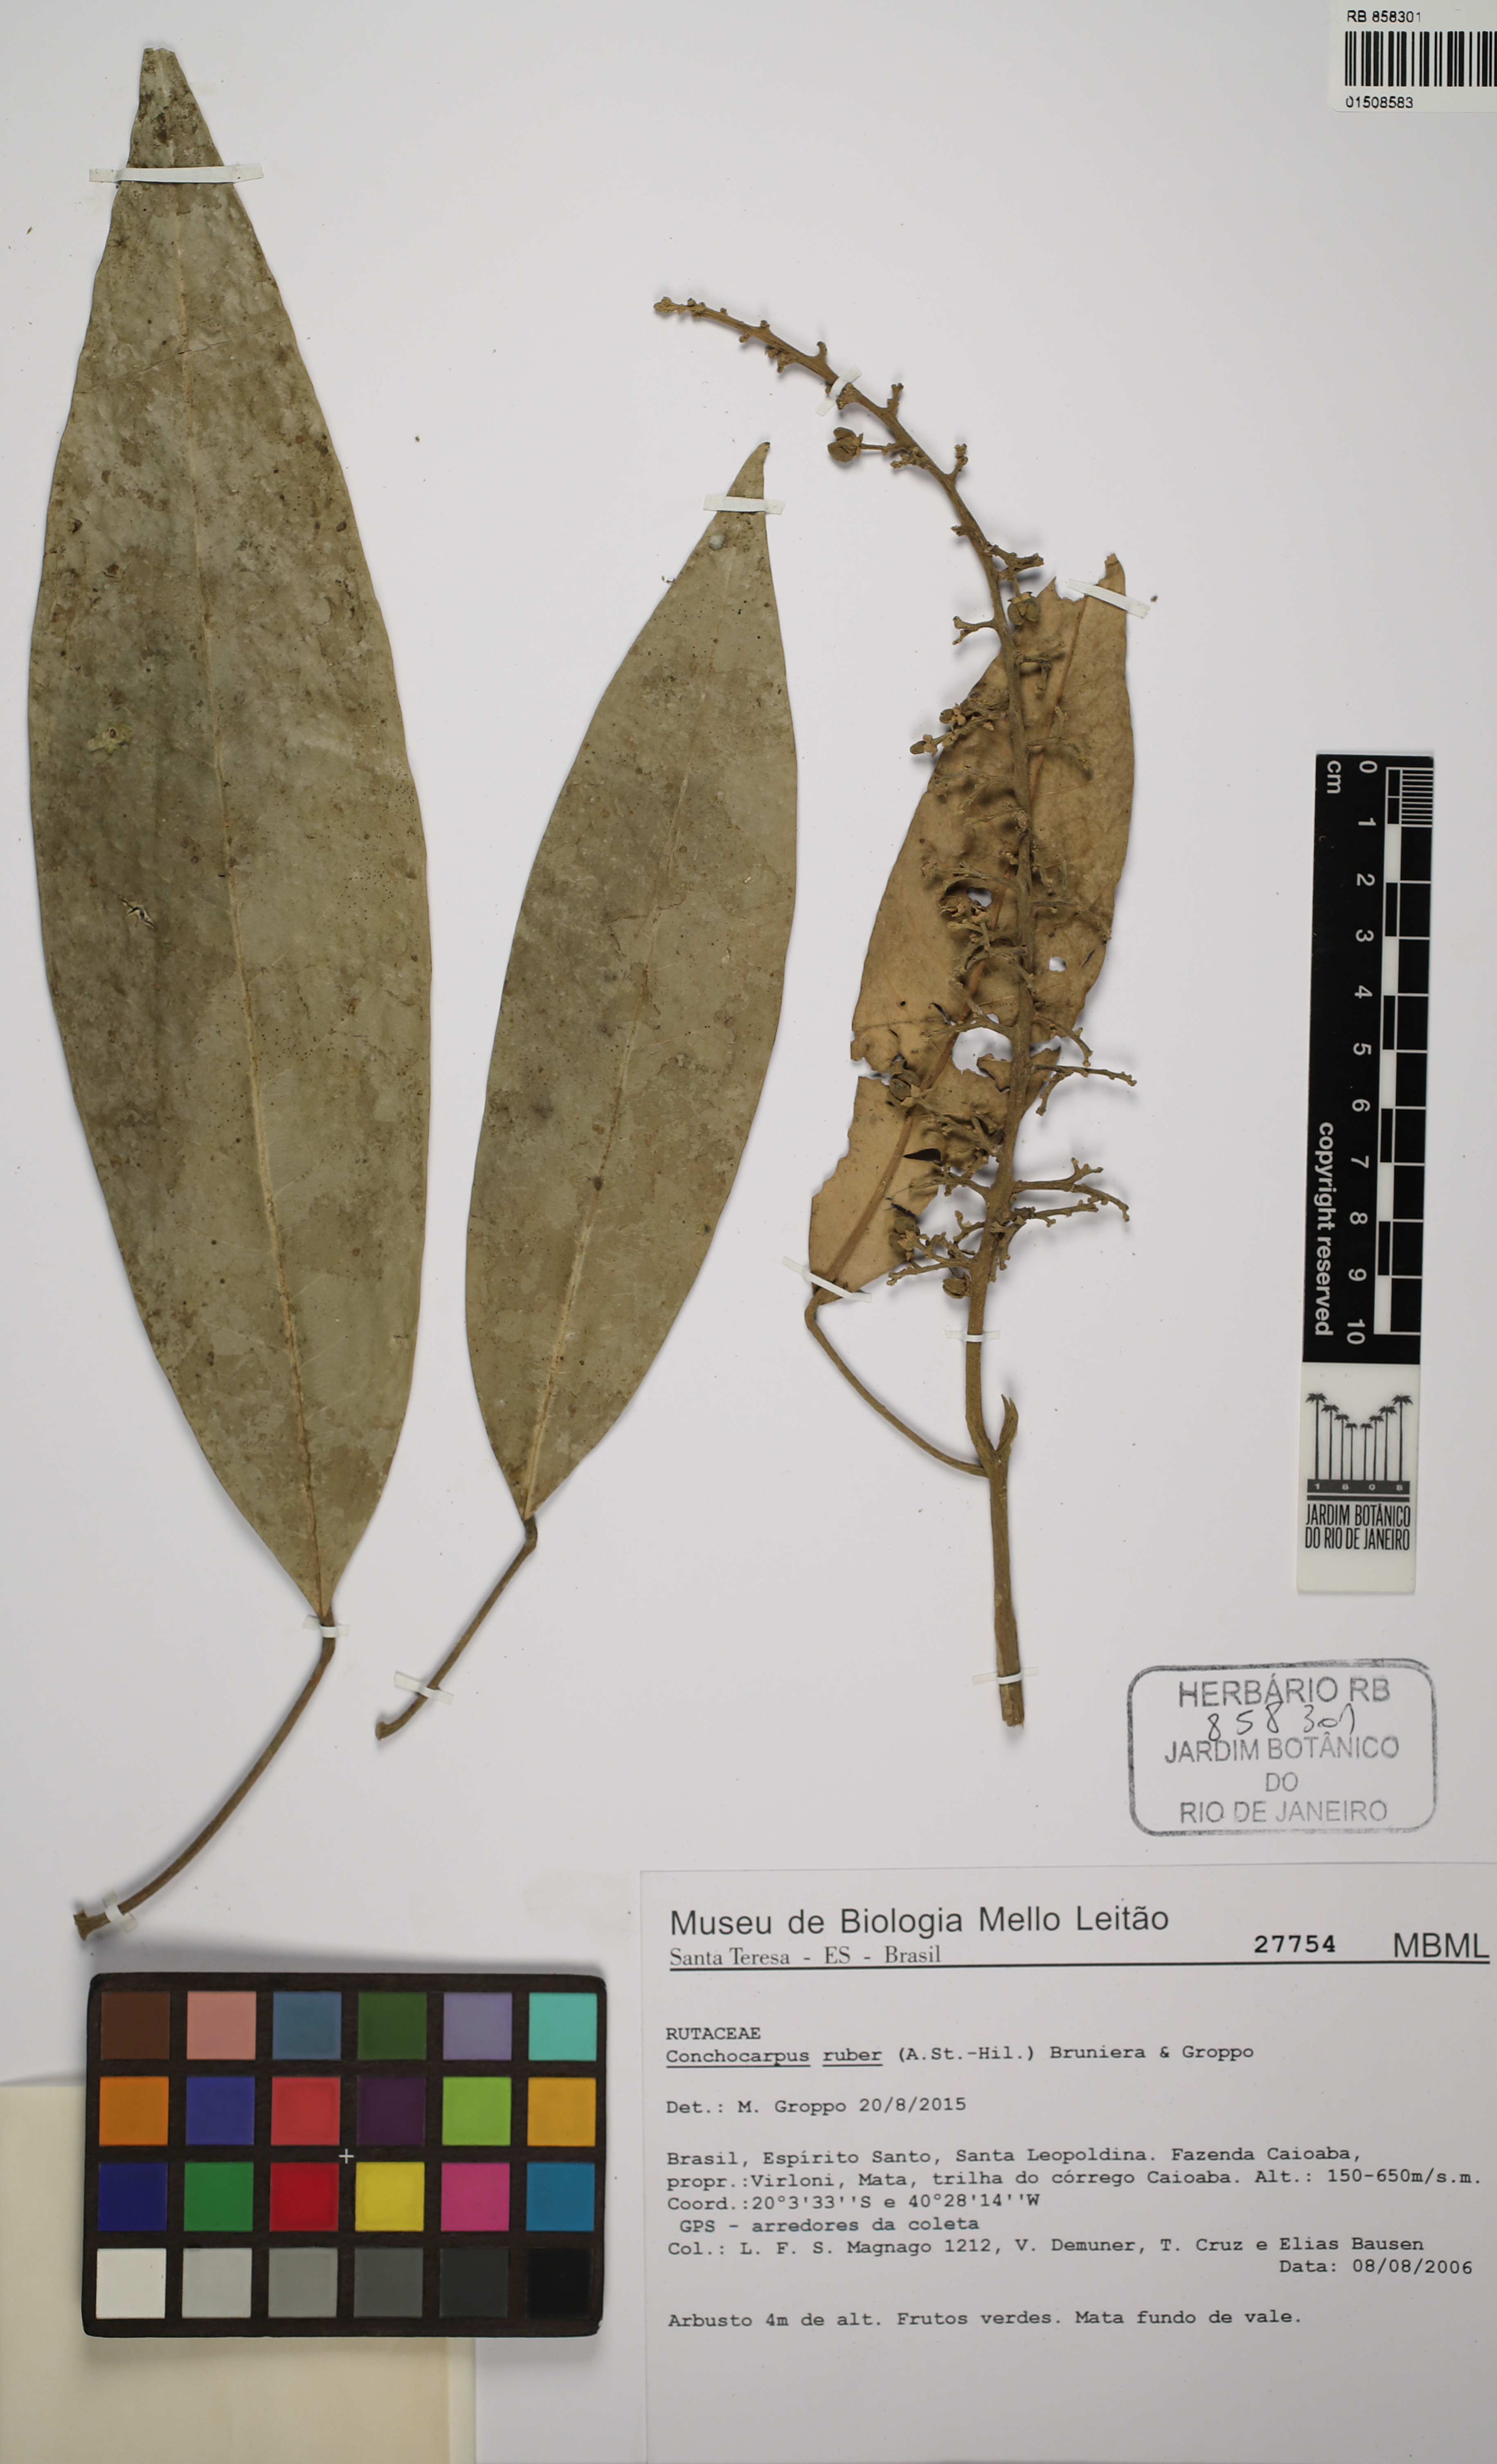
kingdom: Plantae
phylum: Tracheophyta
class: Magnoliopsida
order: Sapindales
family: Rutaceae
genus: Conchocarpus
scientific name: Conchocarpus ruber
